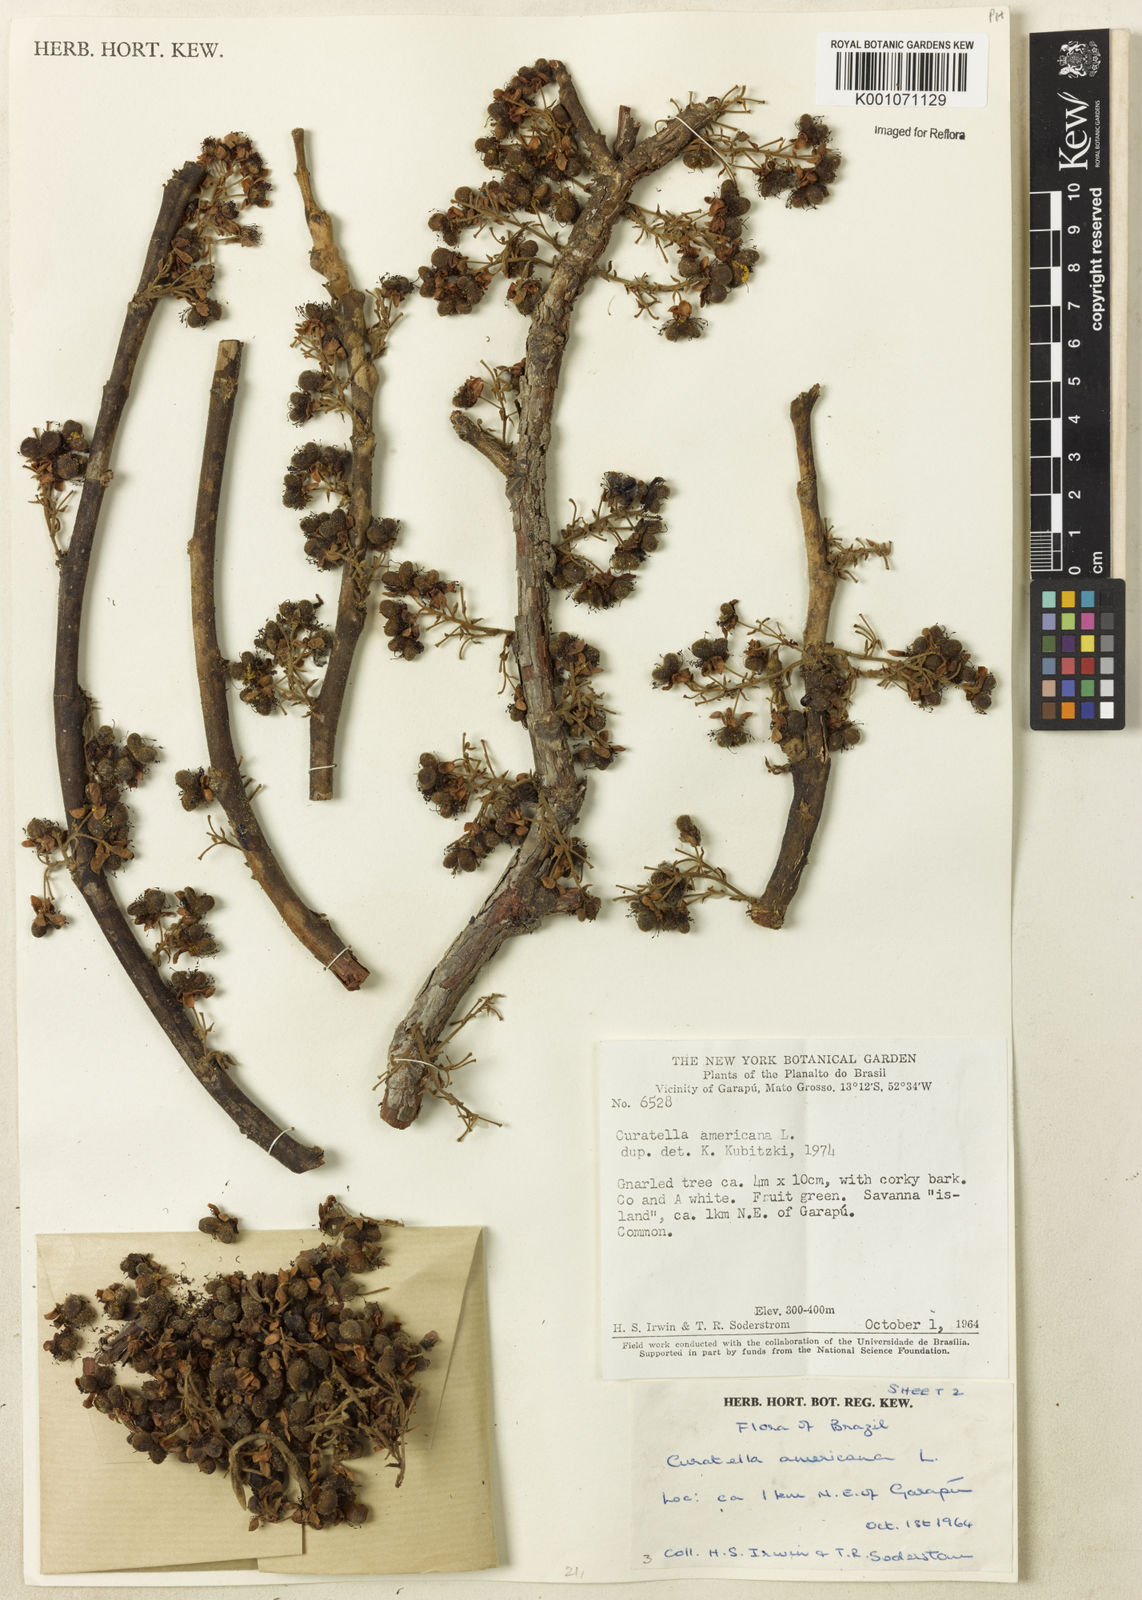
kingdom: Plantae
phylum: Tracheophyta
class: Magnoliopsida
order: Dilleniales
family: Dilleniaceae
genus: Curatella
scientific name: Curatella americana
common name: Sandpaper tree
